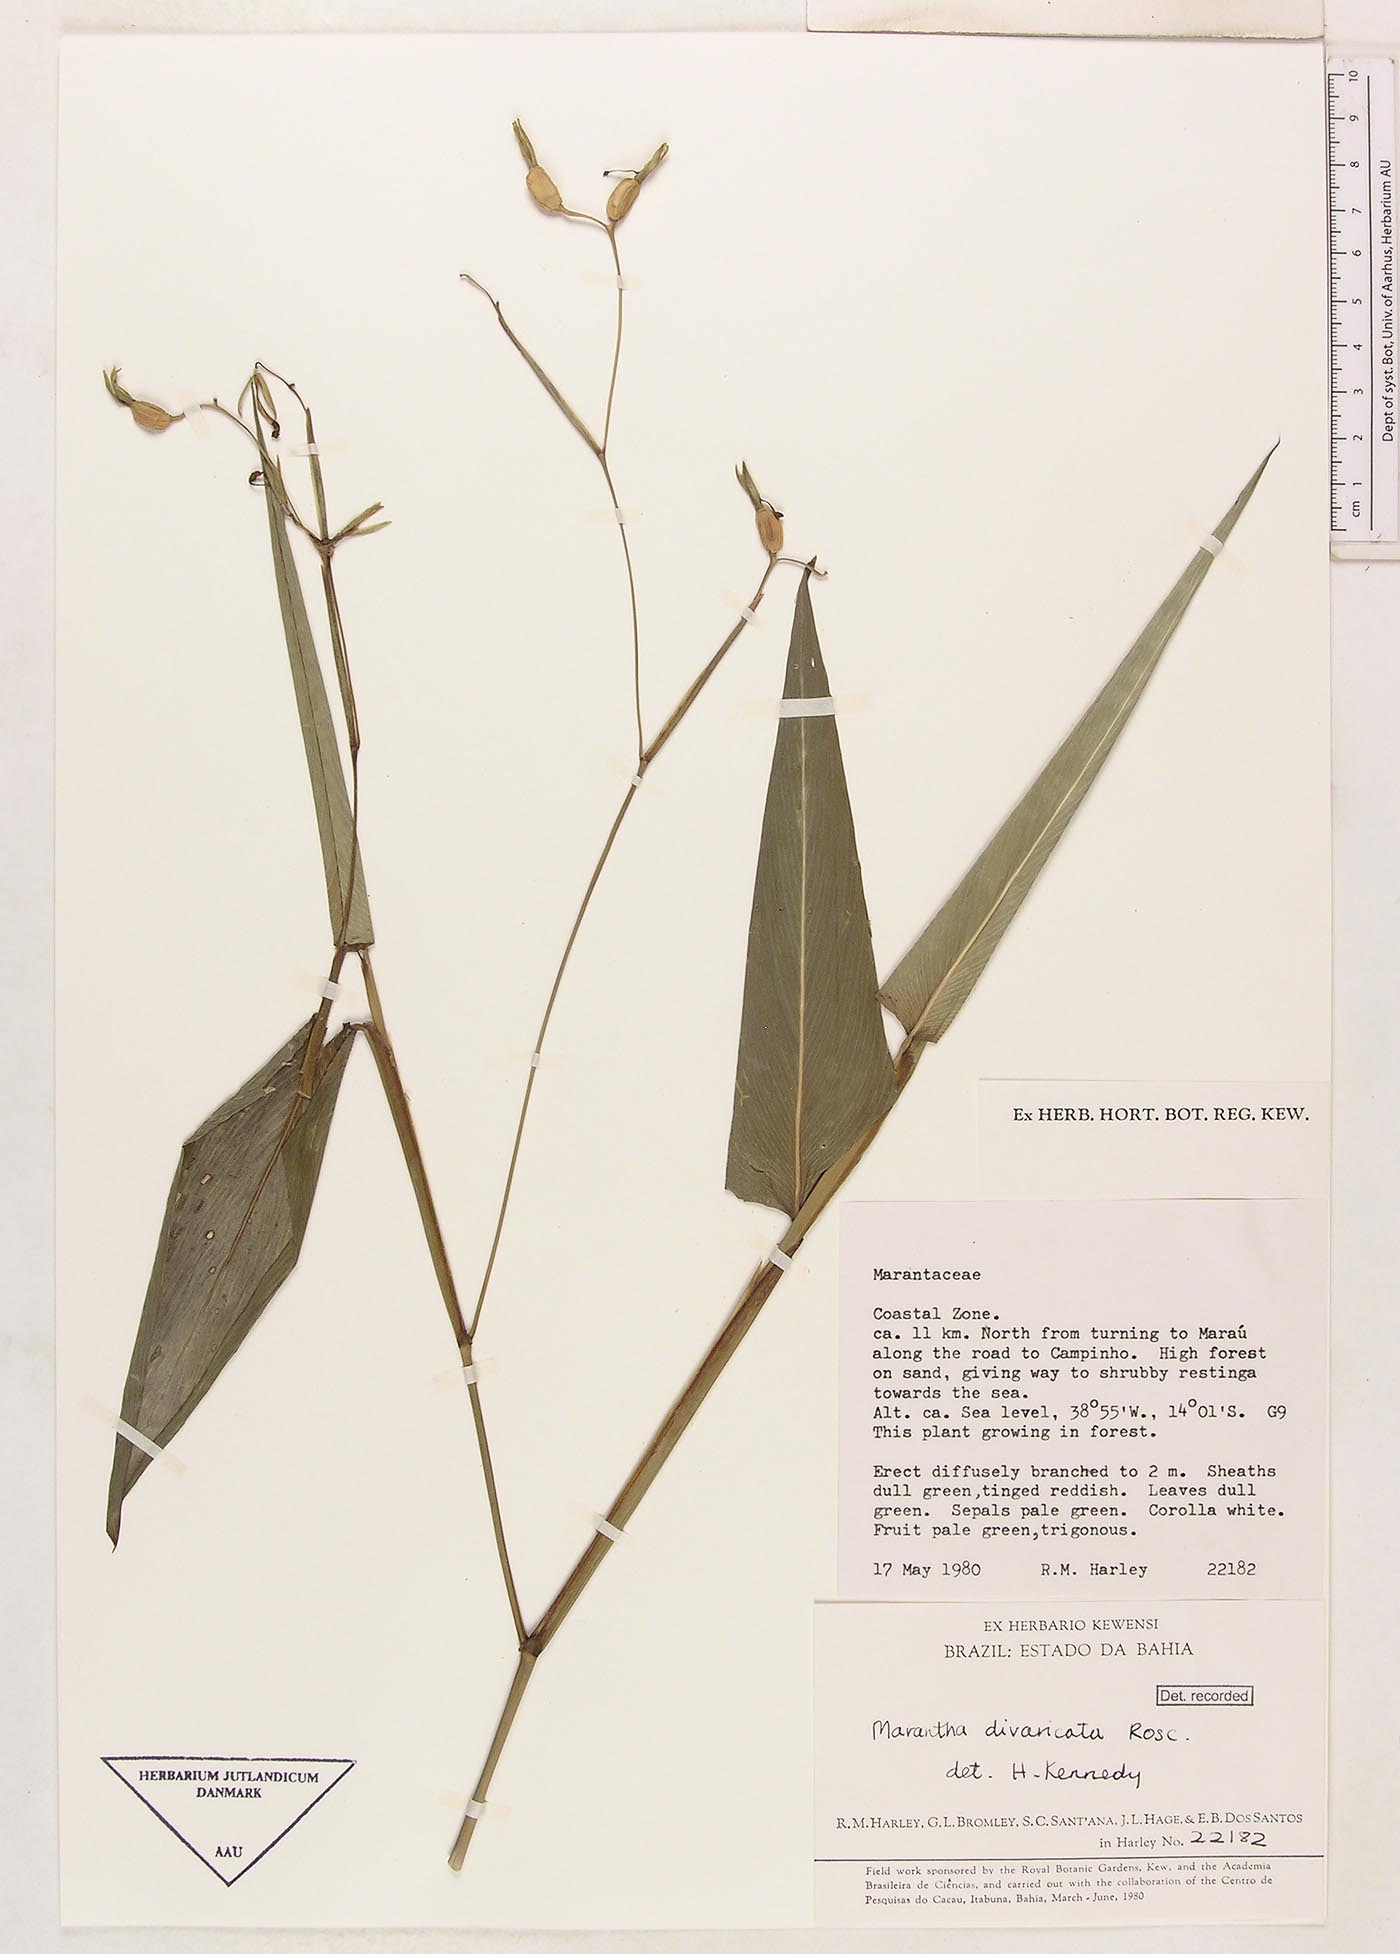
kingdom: Plantae
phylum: Tracheophyta
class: Liliopsida
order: Zingiberales
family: Marantaceae
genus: Maranta
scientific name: Maranta divaricata
